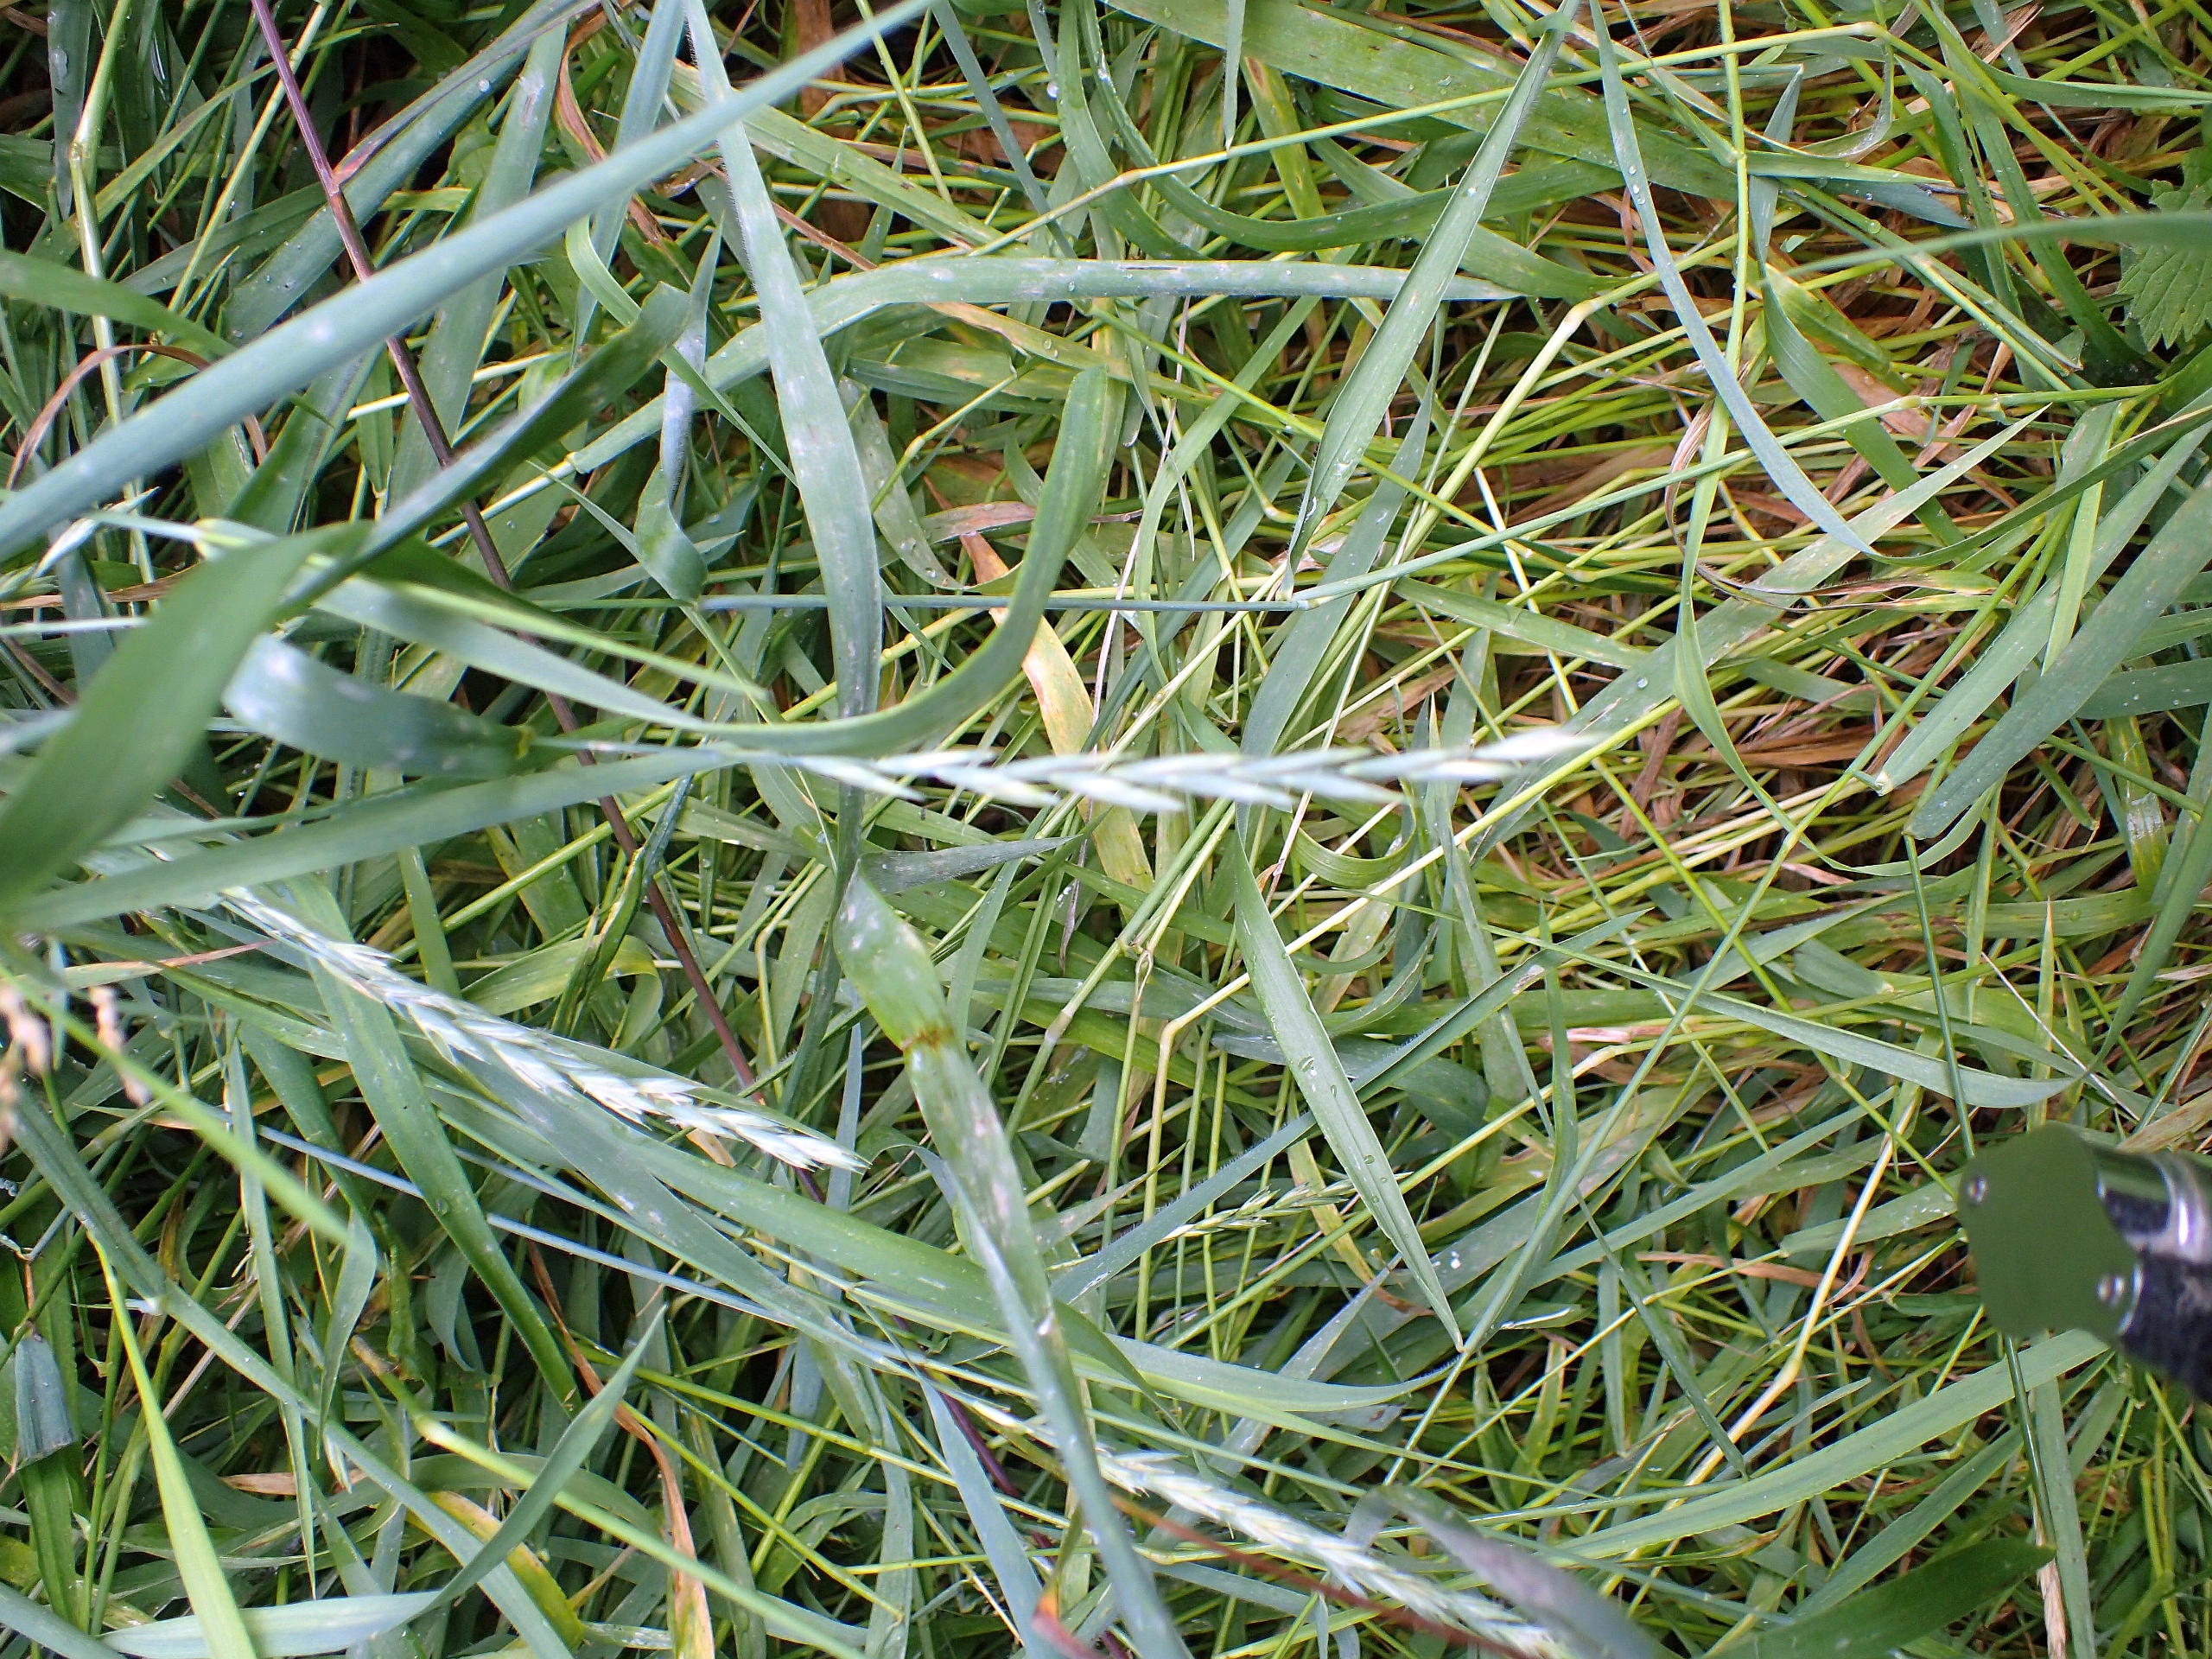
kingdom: Plantae
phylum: Tracheophyta
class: Liliopsida
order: Poales
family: Poaceae
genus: Elymus
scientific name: Elymus repens
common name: Almindelig kvik
